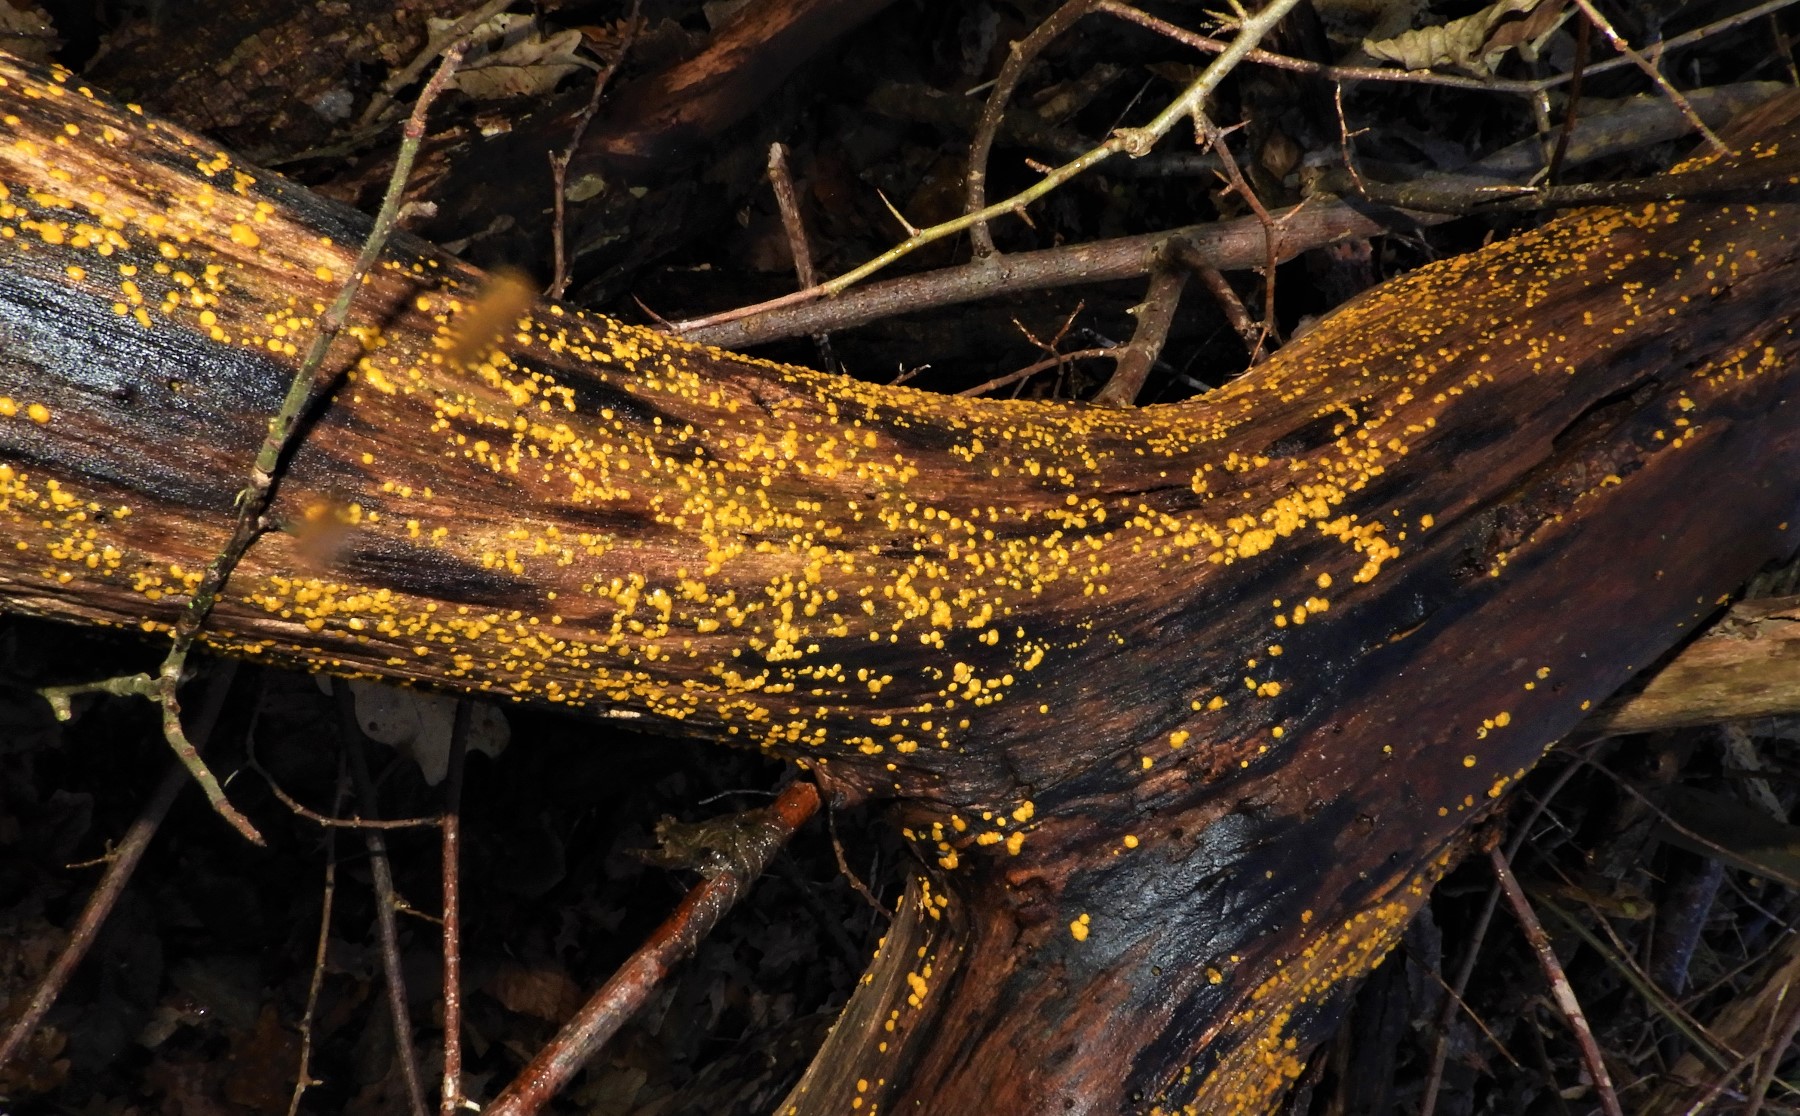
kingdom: Fungi
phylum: Ascomycota
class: Leotiomycetes
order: Helotiales
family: Pezizellaceae
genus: Calycina
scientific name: Calycina citrina
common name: almindelig gulskive
